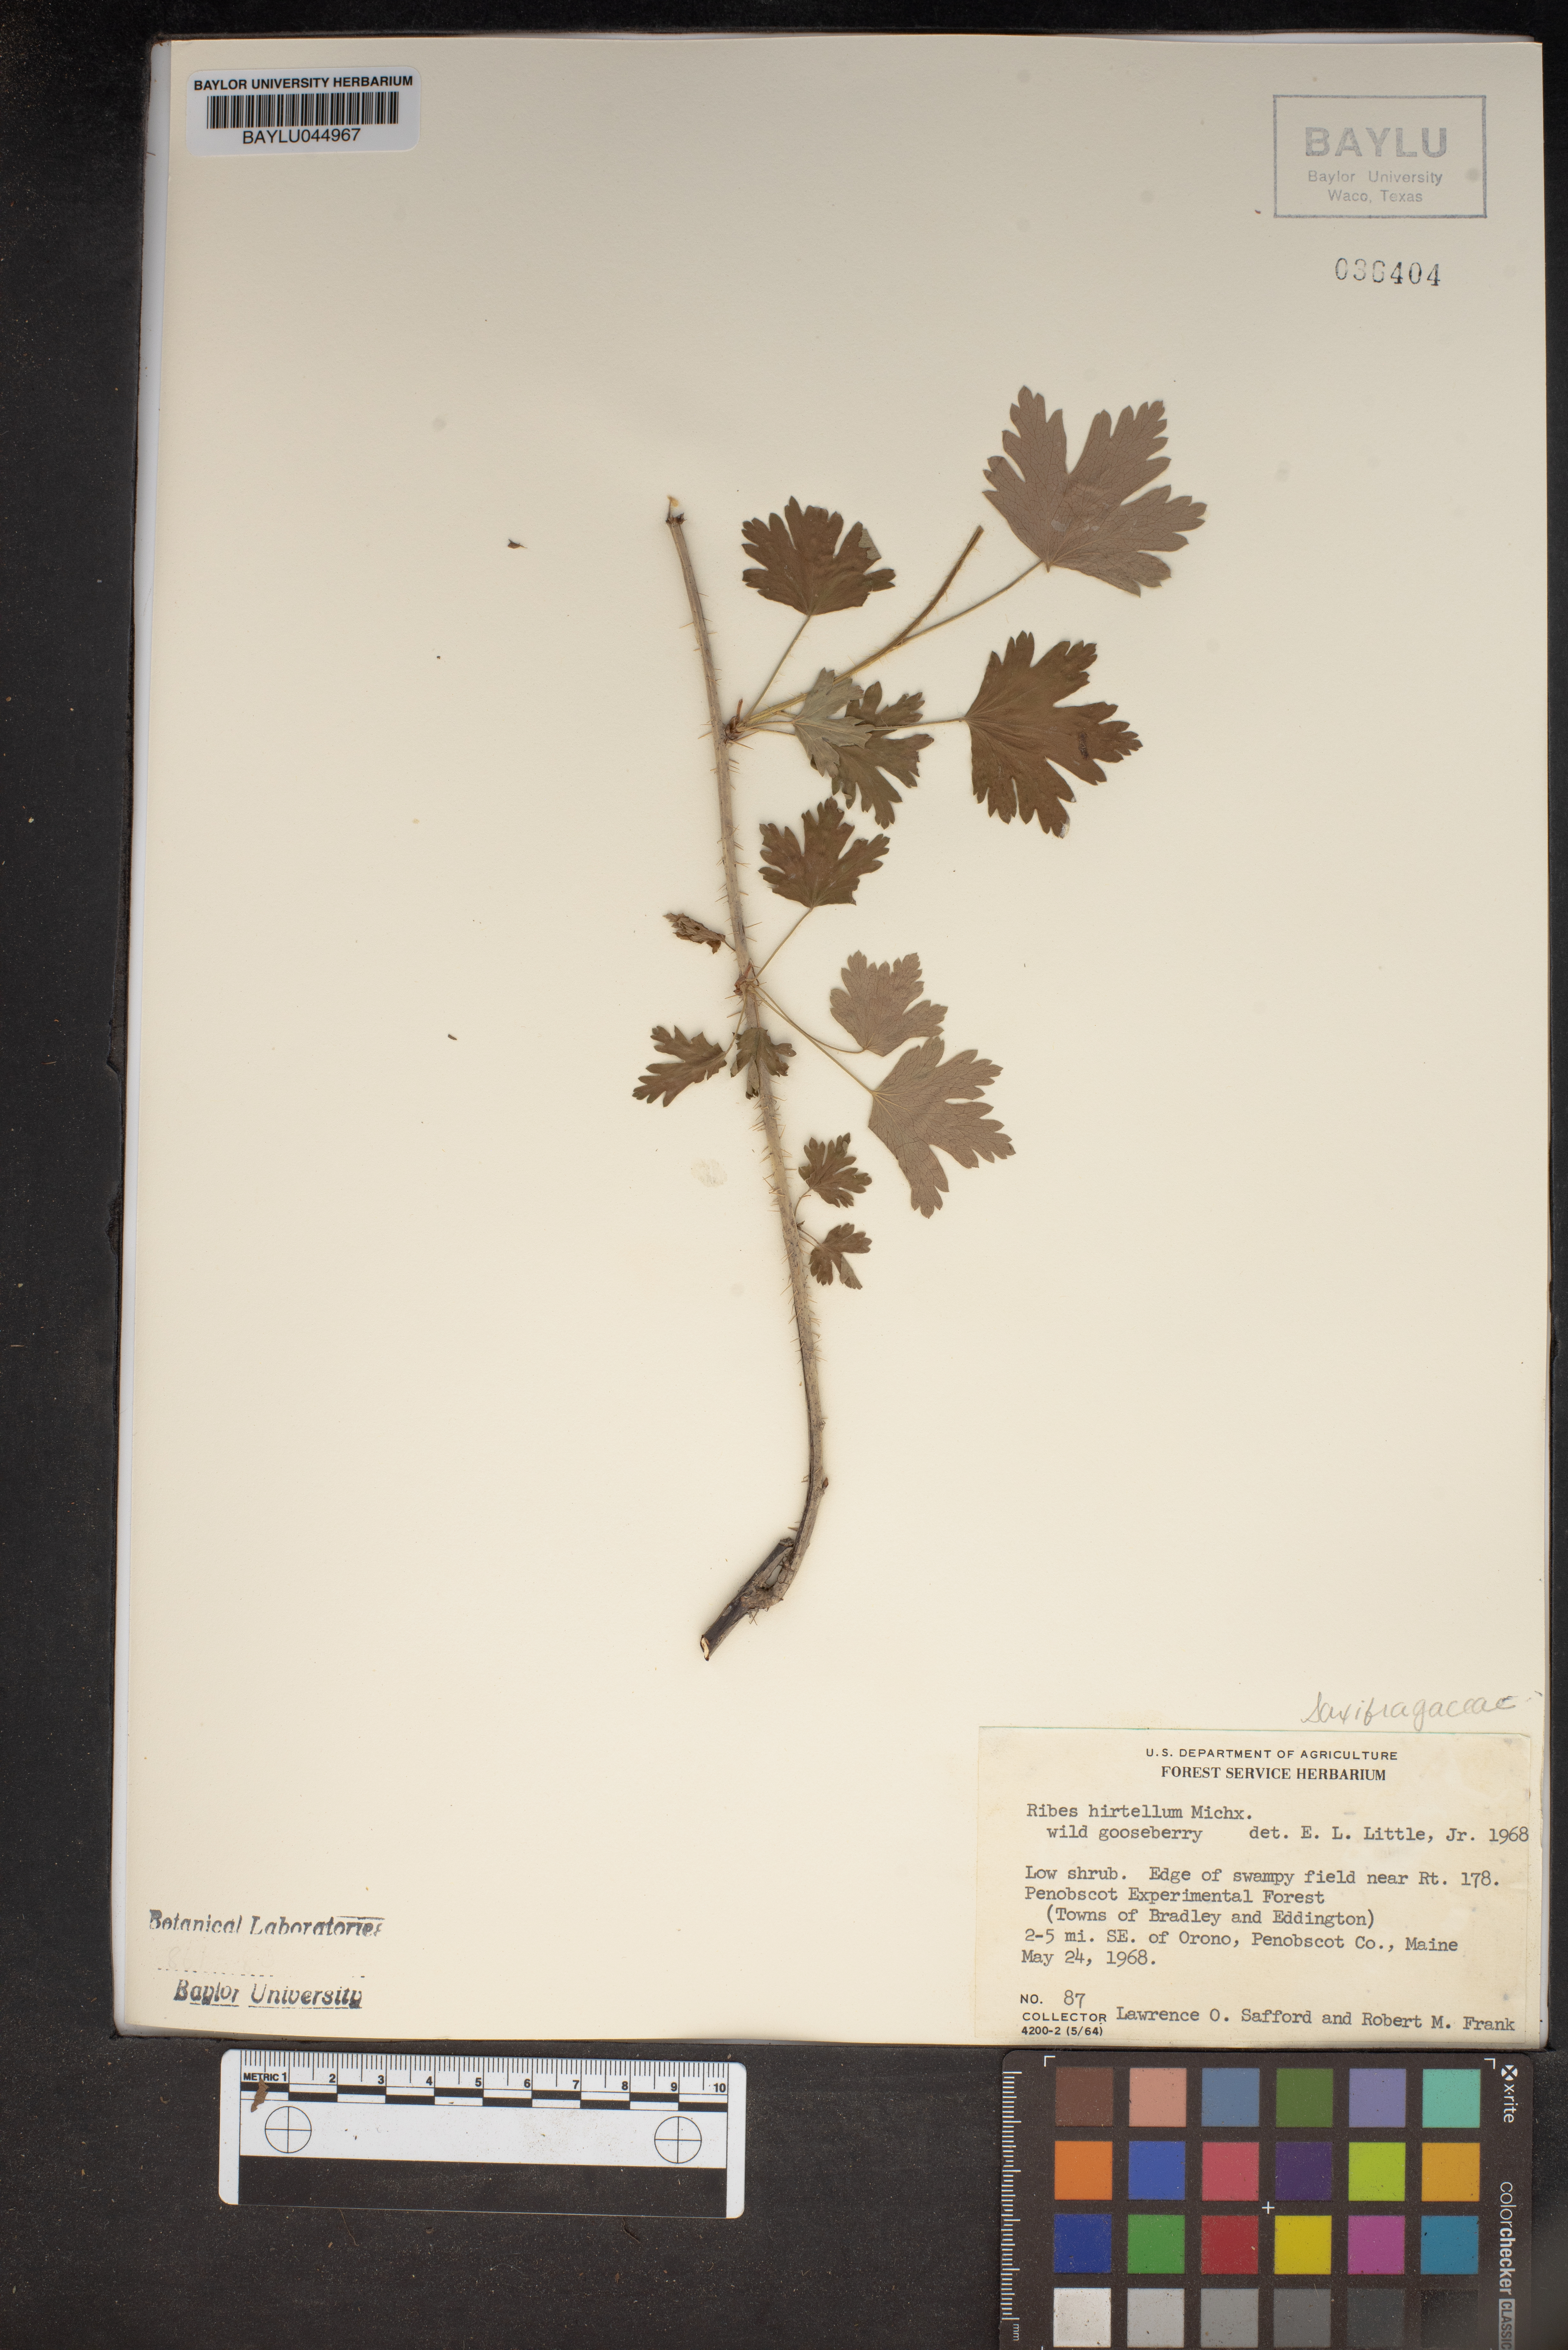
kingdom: Plantae
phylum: Tracheophyta
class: Magnoliopsida
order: Saxifragales
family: Grossulariaceae
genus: Ribes
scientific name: Ribes hirtellum
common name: Hairy gooseberry
